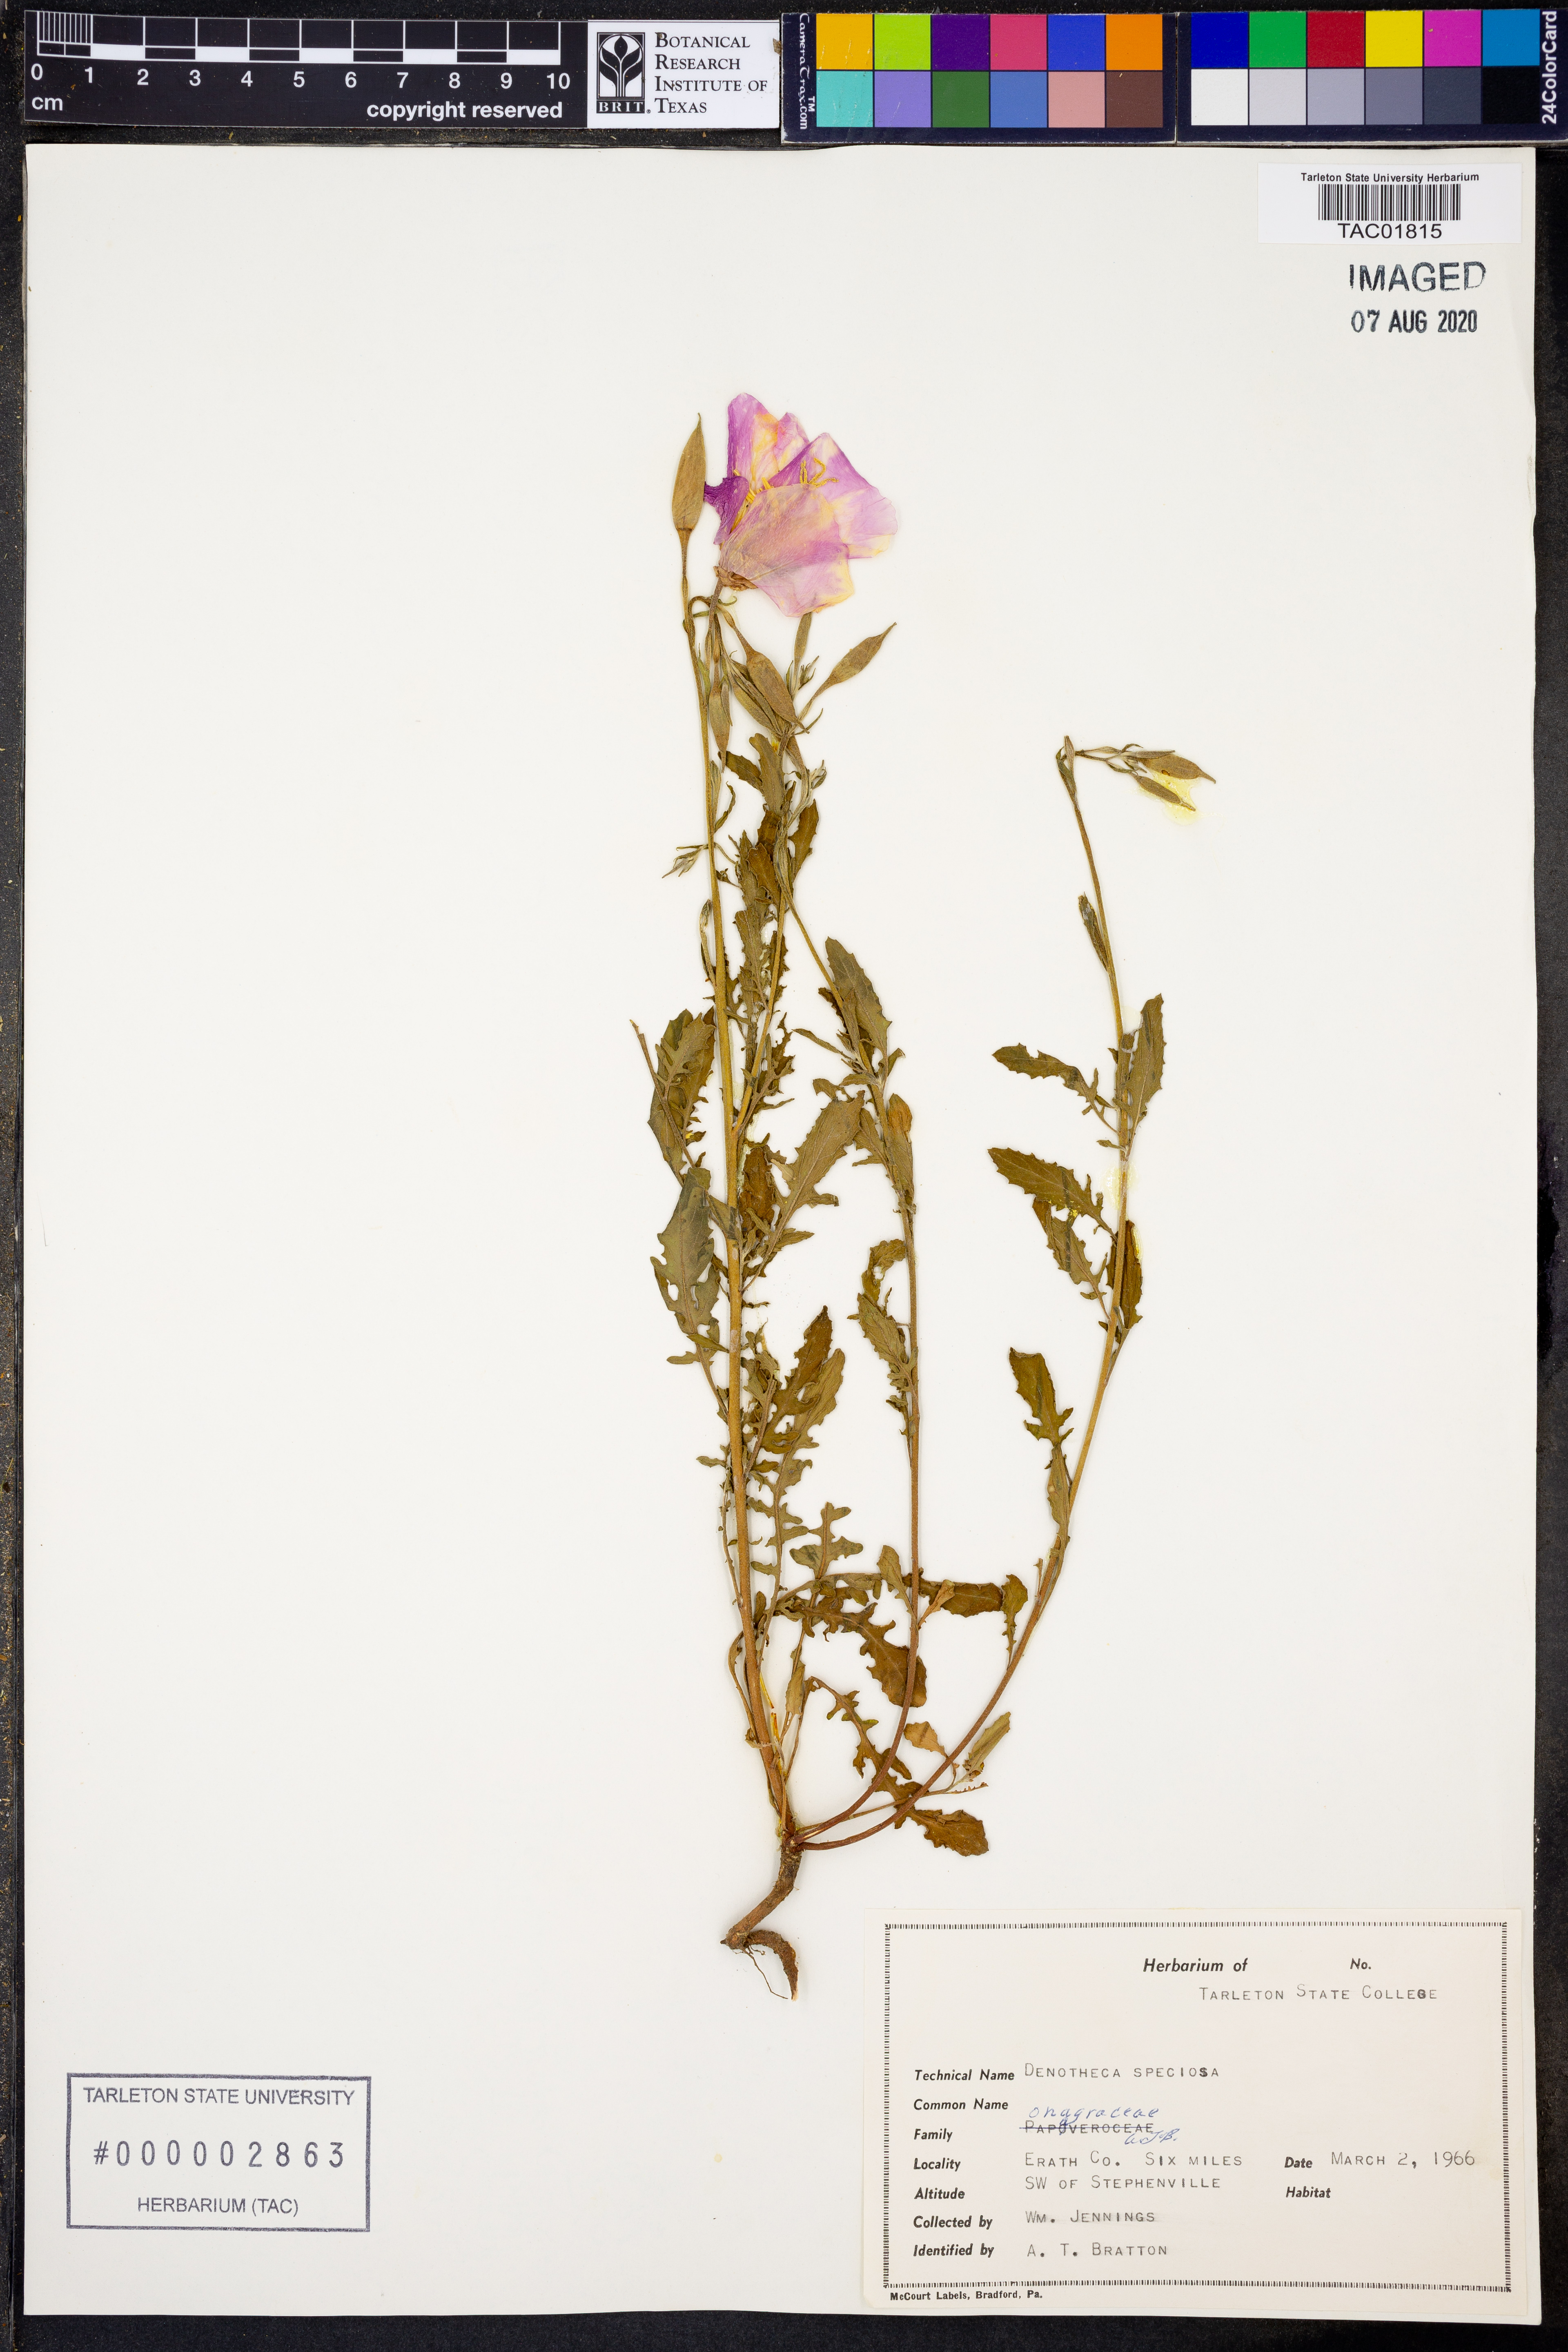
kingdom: Plantae
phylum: Tracheophyta
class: Magnoliopsida
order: Myrtales
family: Onagraceae
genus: Oenothera
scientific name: Oenothera speciosa
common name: White evening-primrose
